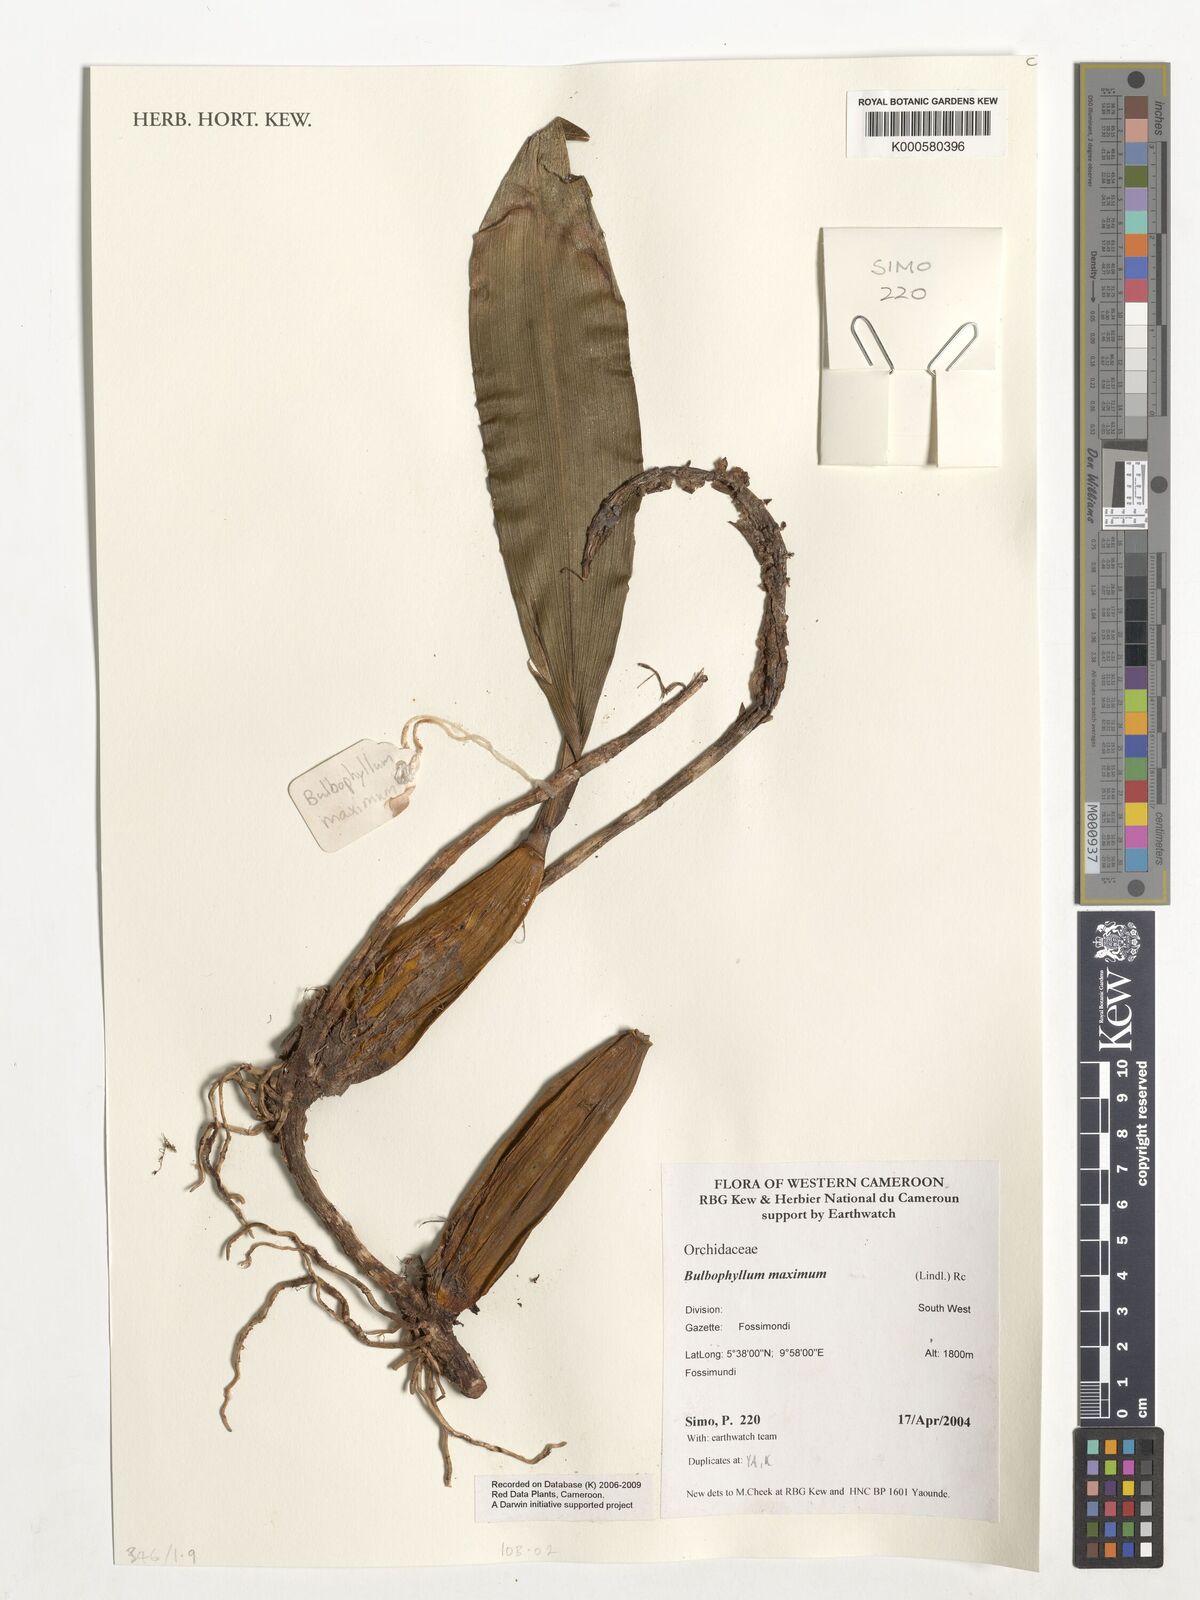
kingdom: Plantae
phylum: Tracheophyta
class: Liliopsida
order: Asparagales
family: Orchidaceae
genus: Bulbophyllum
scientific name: Bulbophyllum maximum
